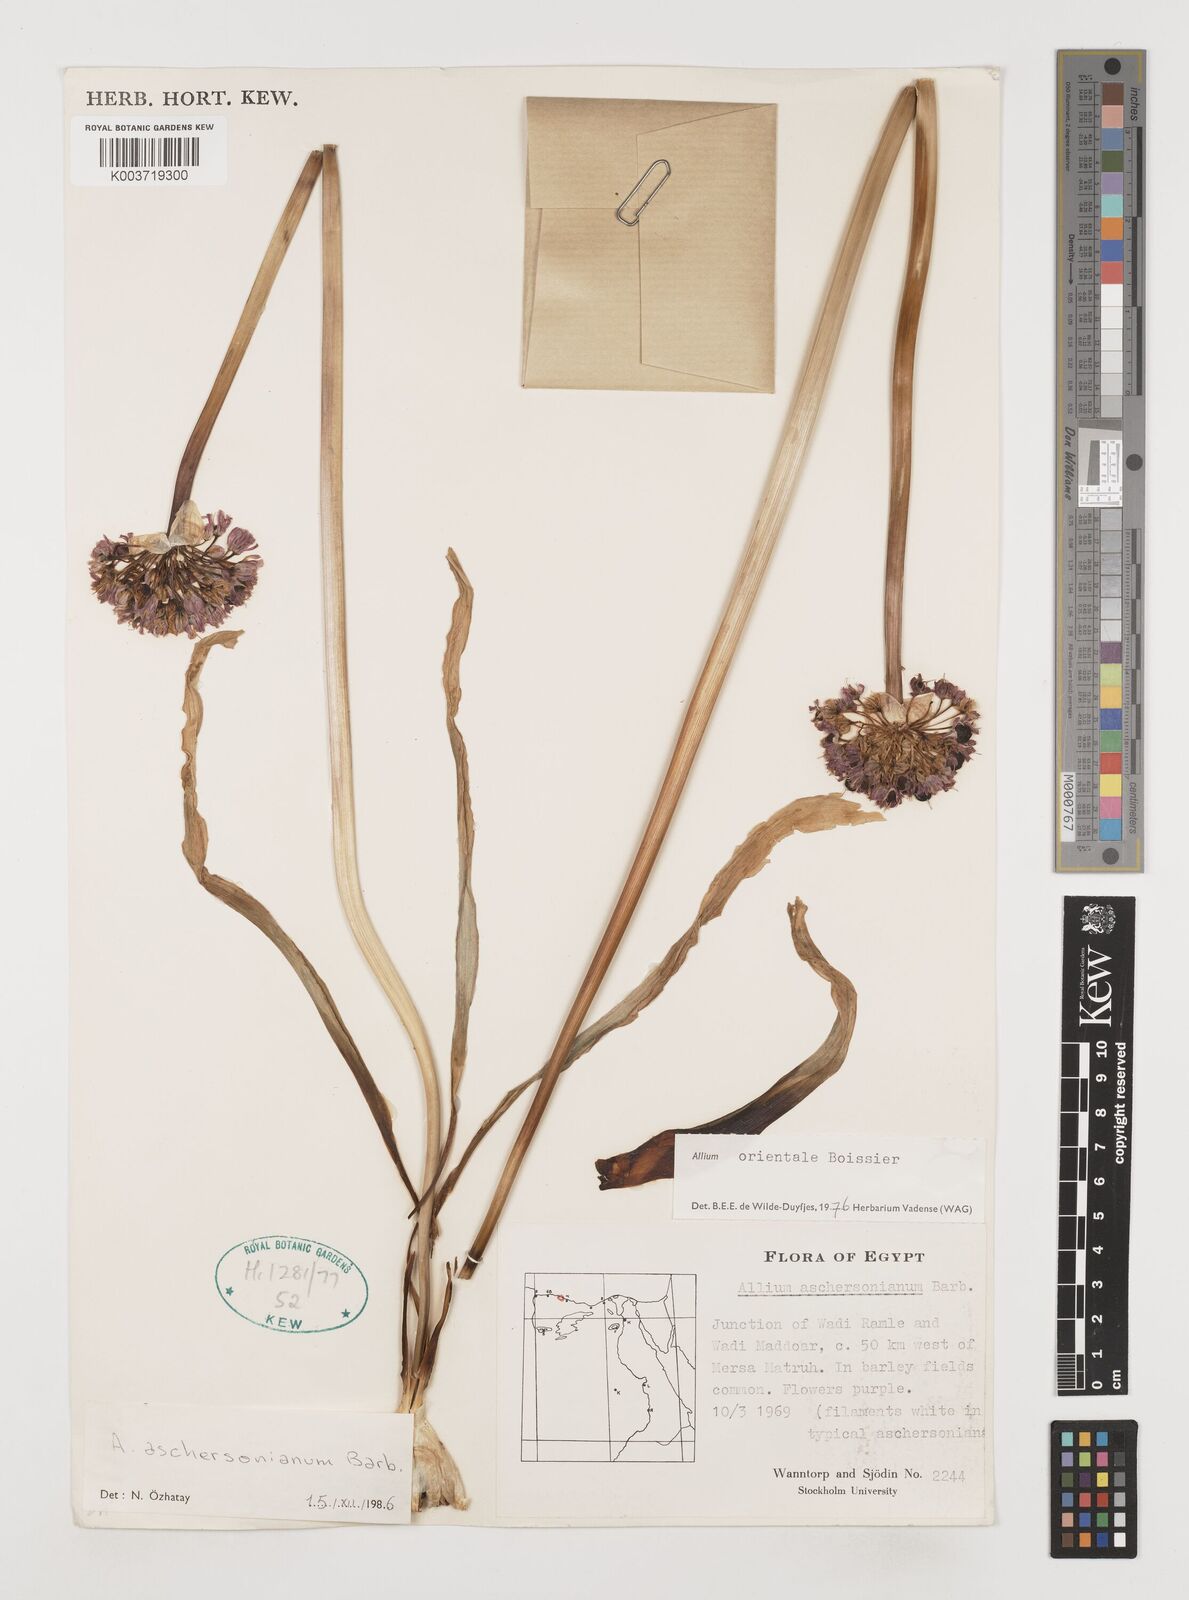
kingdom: Plantae
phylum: Tracheophyta
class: Liliopsida
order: Asparagales
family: Amaryllidaceae
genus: Allium
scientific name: Allium aschersonianum
